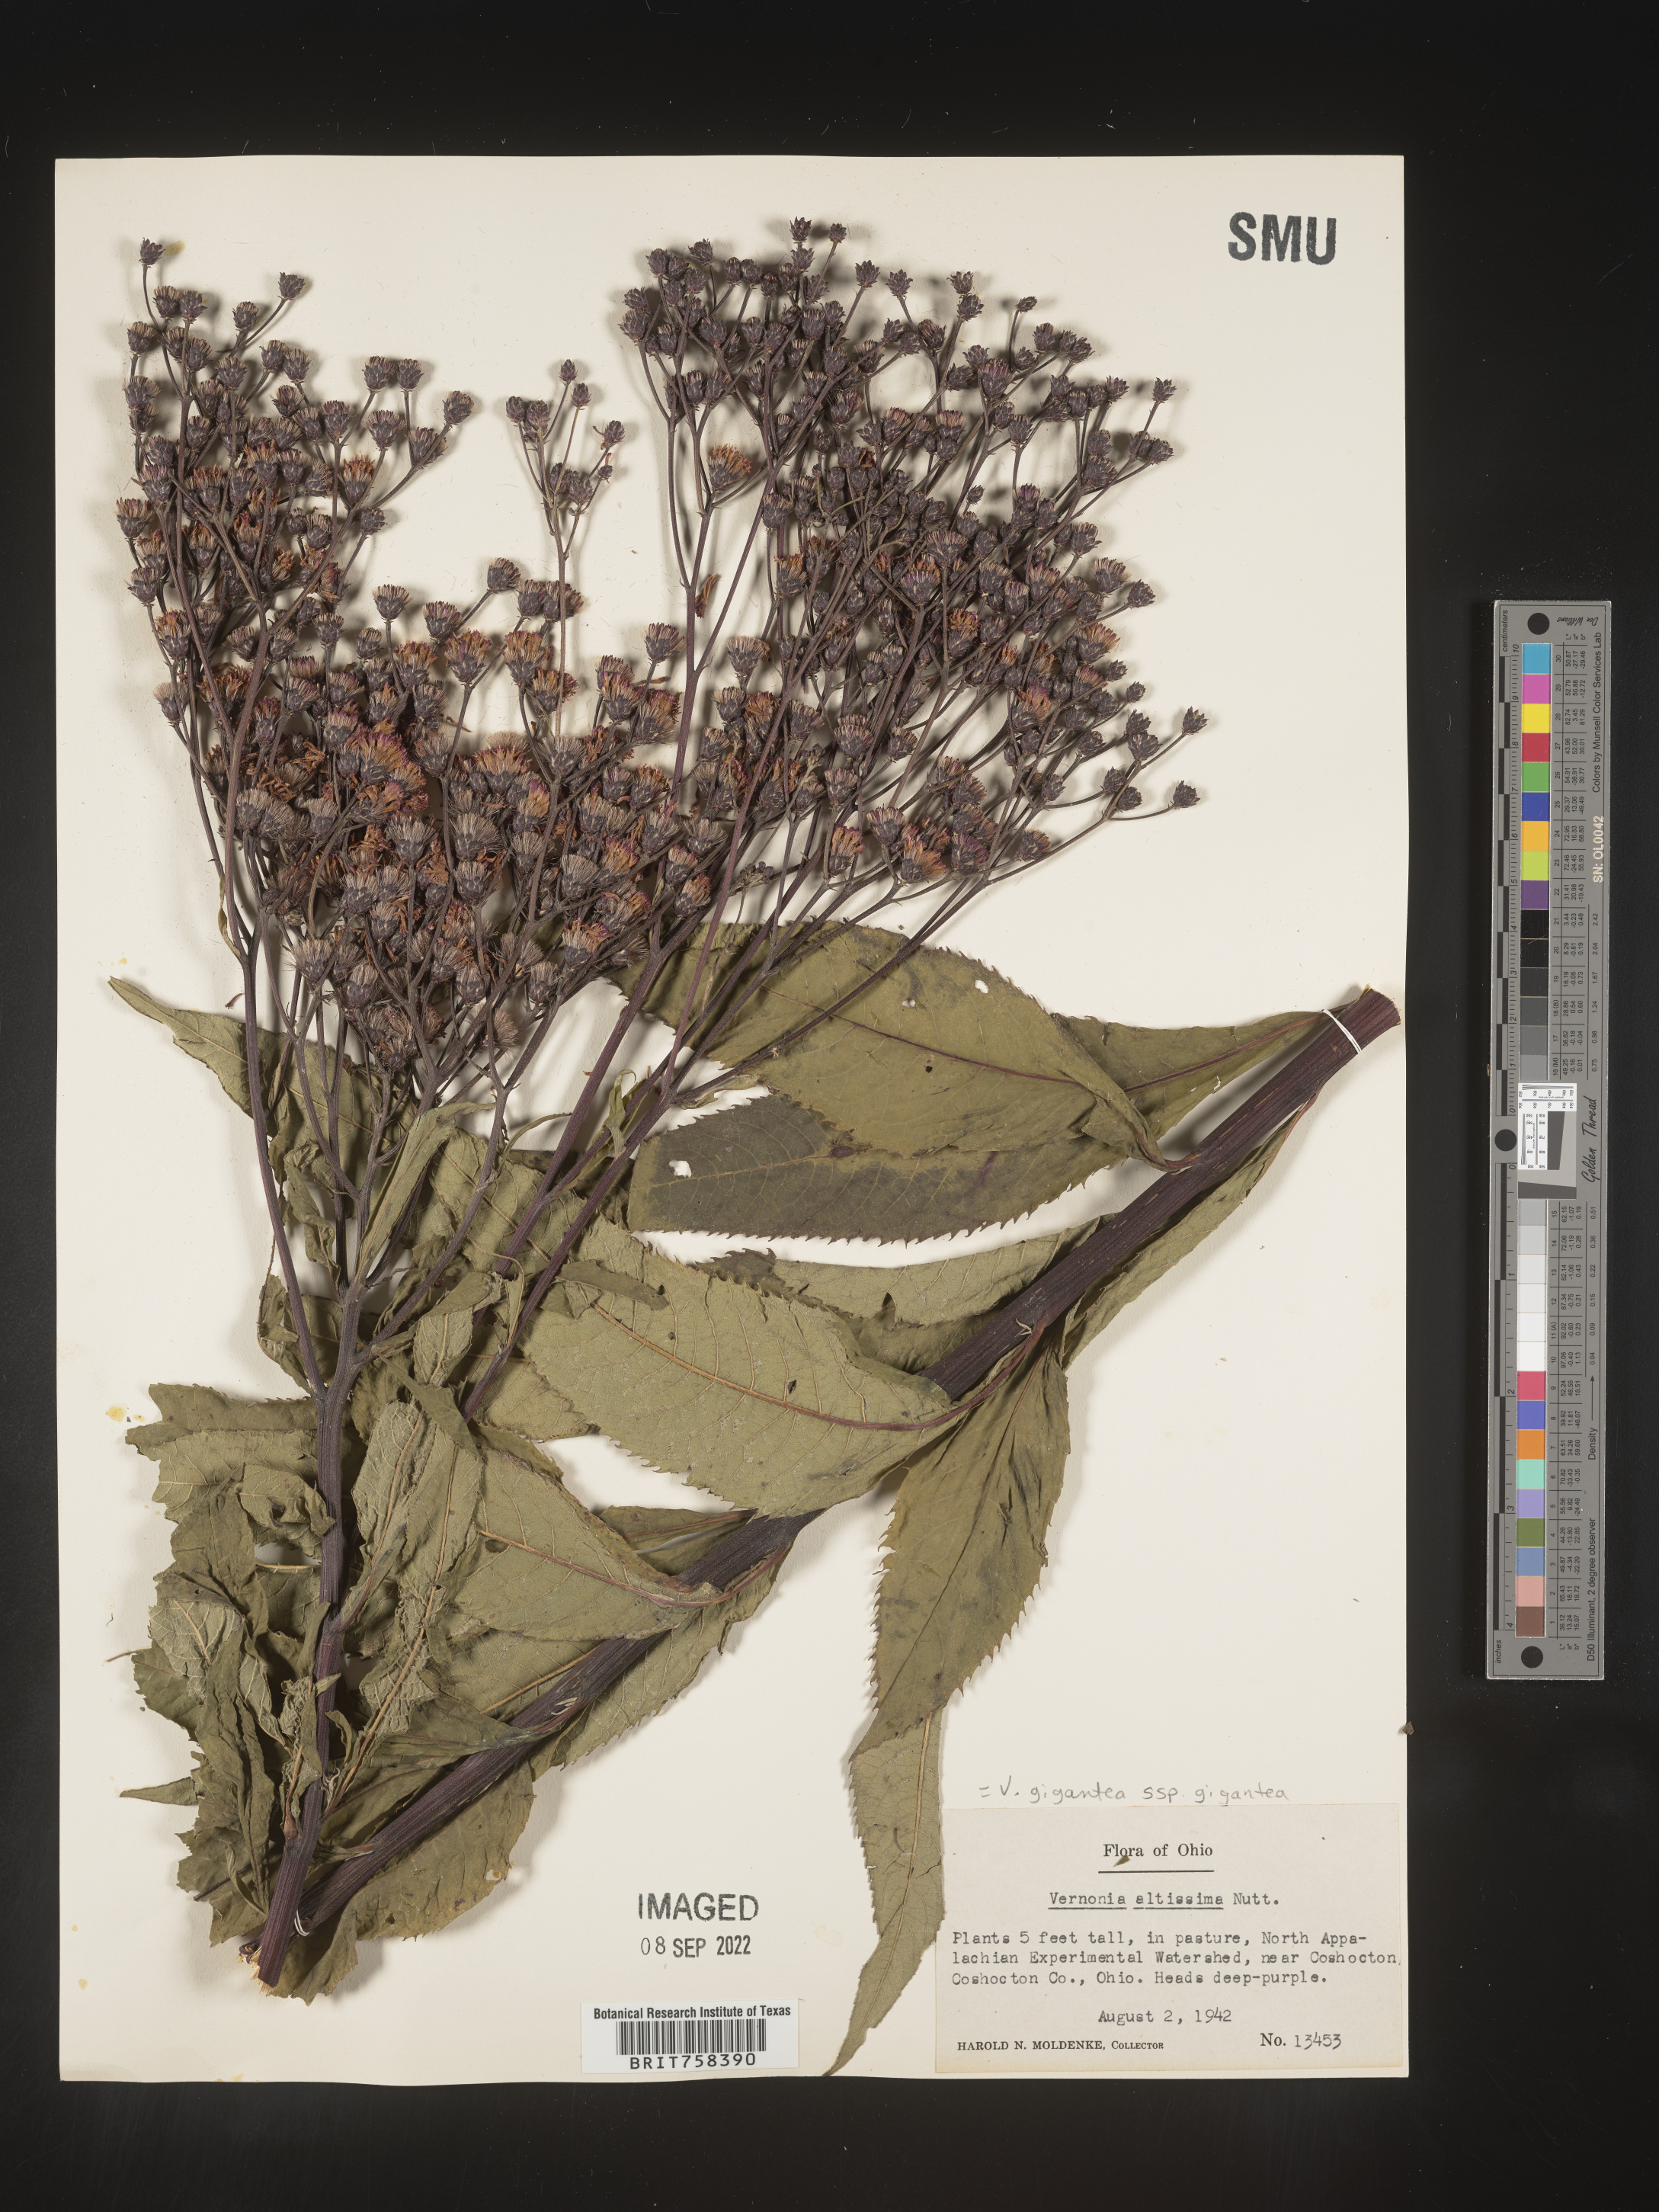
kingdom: Plantae
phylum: Tracheophyta
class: Magnoliopsida
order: Asterales
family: Asteraceae
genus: Vernonia
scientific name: Vernonia gigantea
